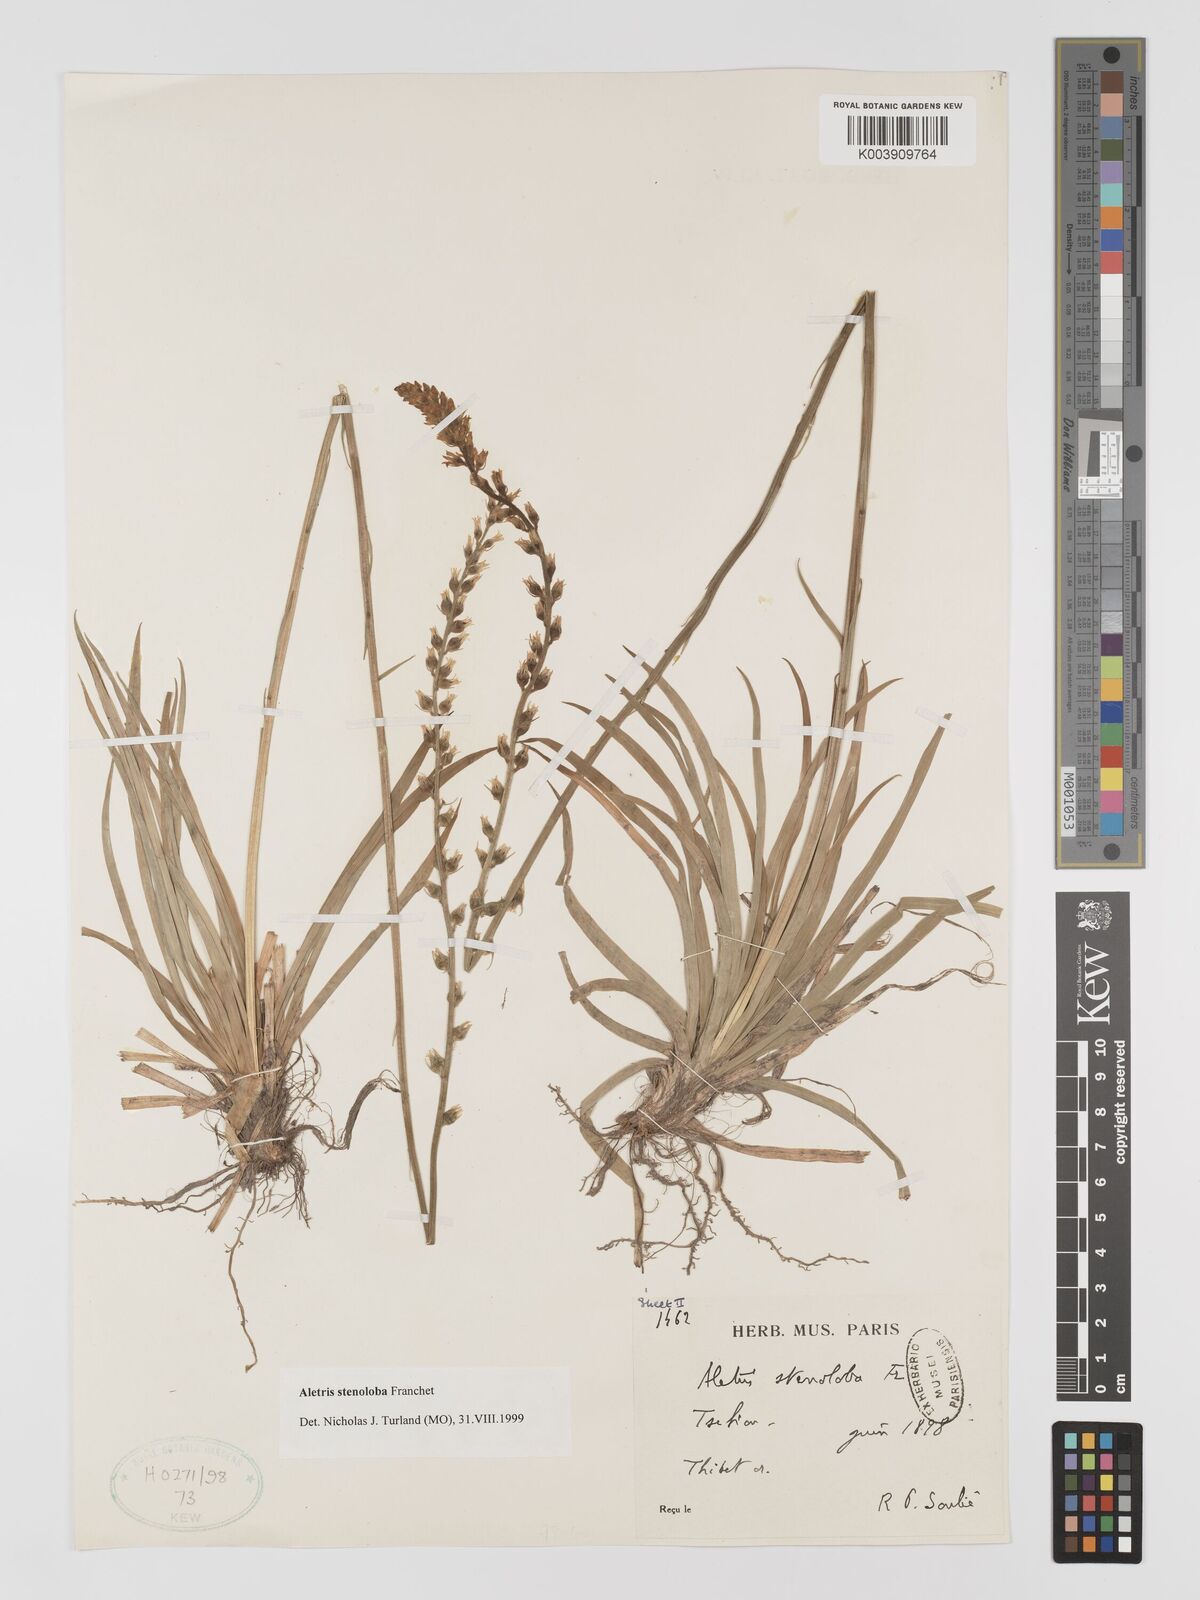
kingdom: Plantae
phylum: Tracheophyta
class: Liliopsida
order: Dioscoreales
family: Nartheciaceae
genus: Aletris
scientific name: Aletris stenoloba
